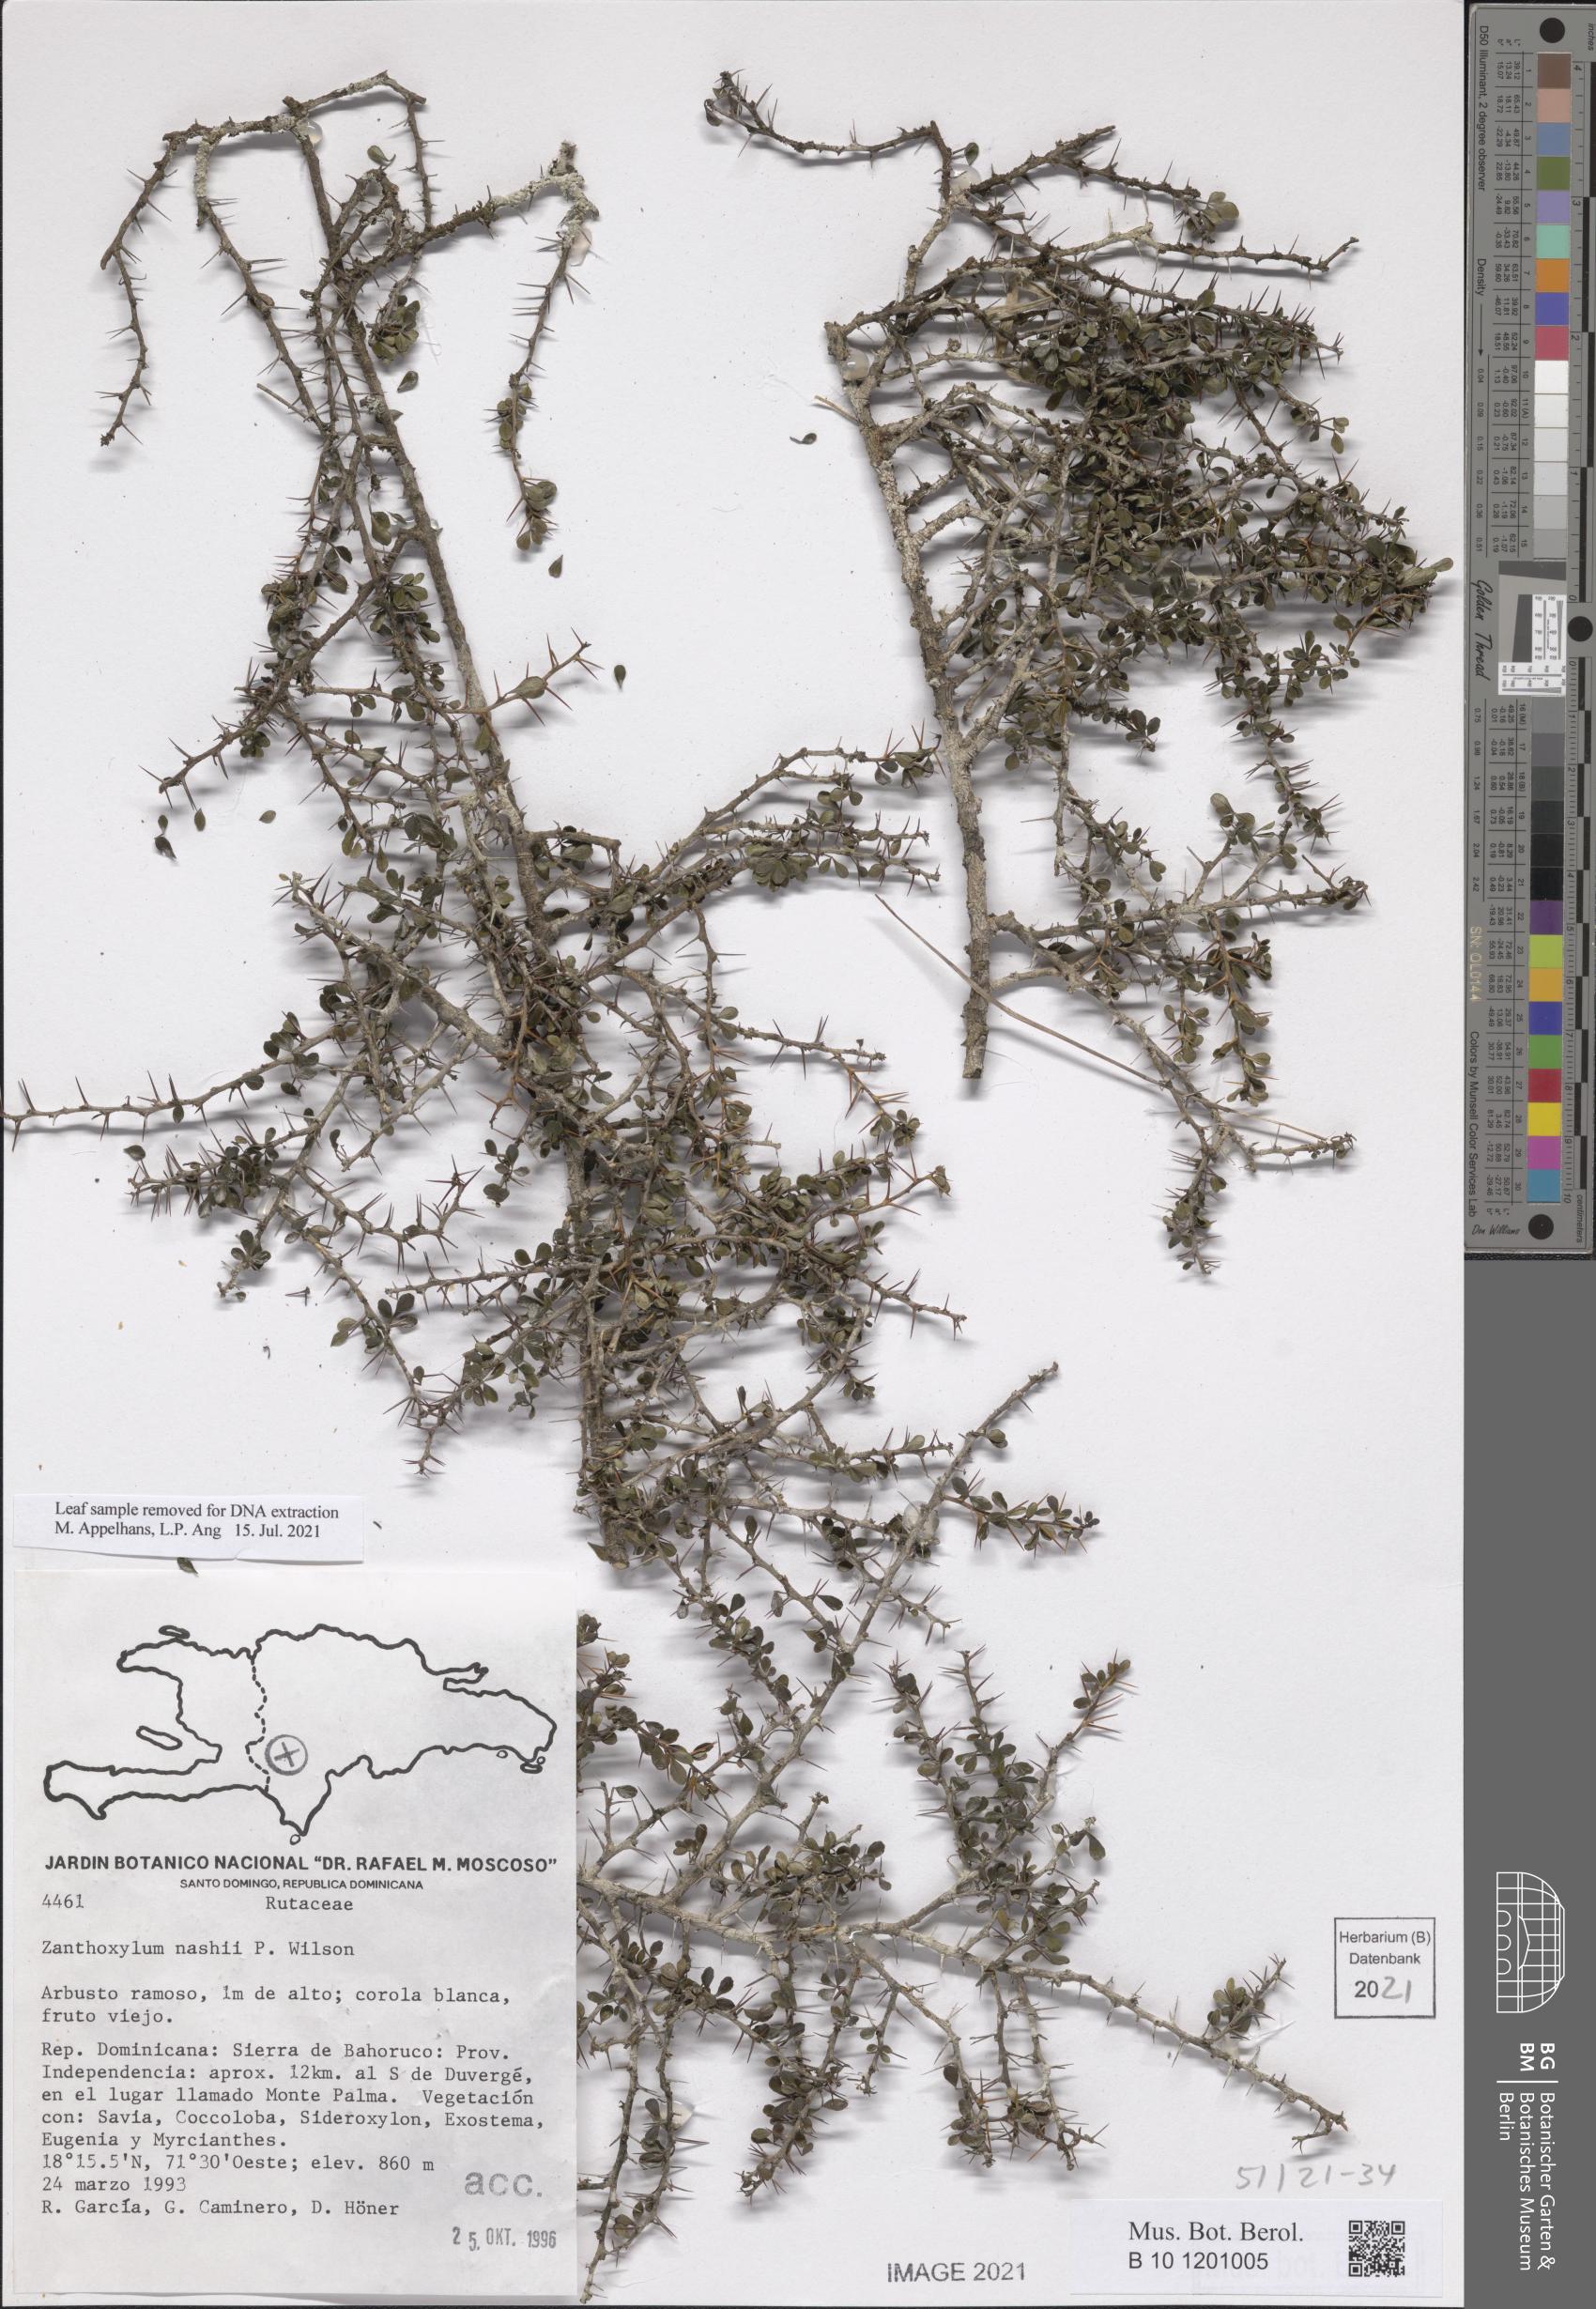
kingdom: Plantae
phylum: Tracheophyta
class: Magnoliopsida
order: Sapindales
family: Rutaceae
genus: Zanthoxylum
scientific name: Zanthoxylum nashii
